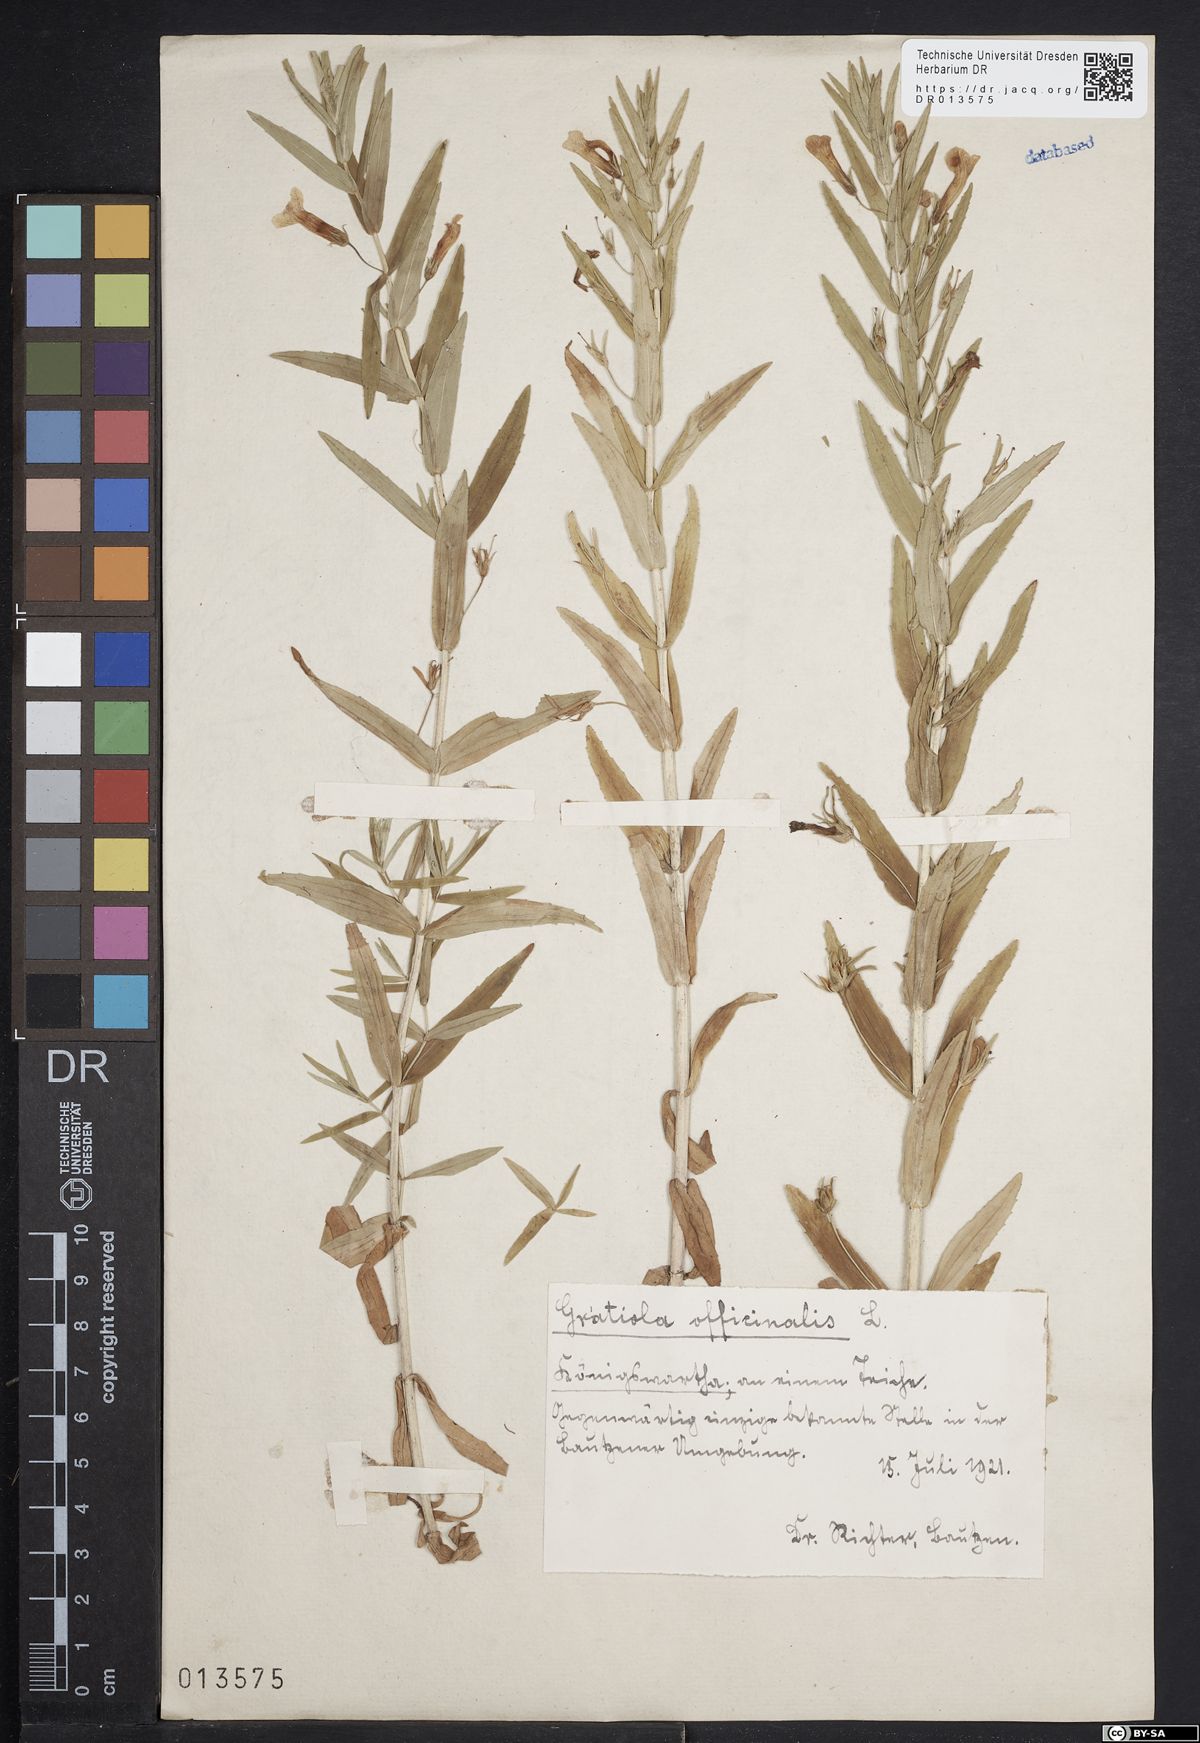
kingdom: Plantae
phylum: Tracheophyta
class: Magnoliopsida
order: Lamiales
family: Plantaginaceae
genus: Gratiola
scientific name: Gratiola officinalis
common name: Gratiola
